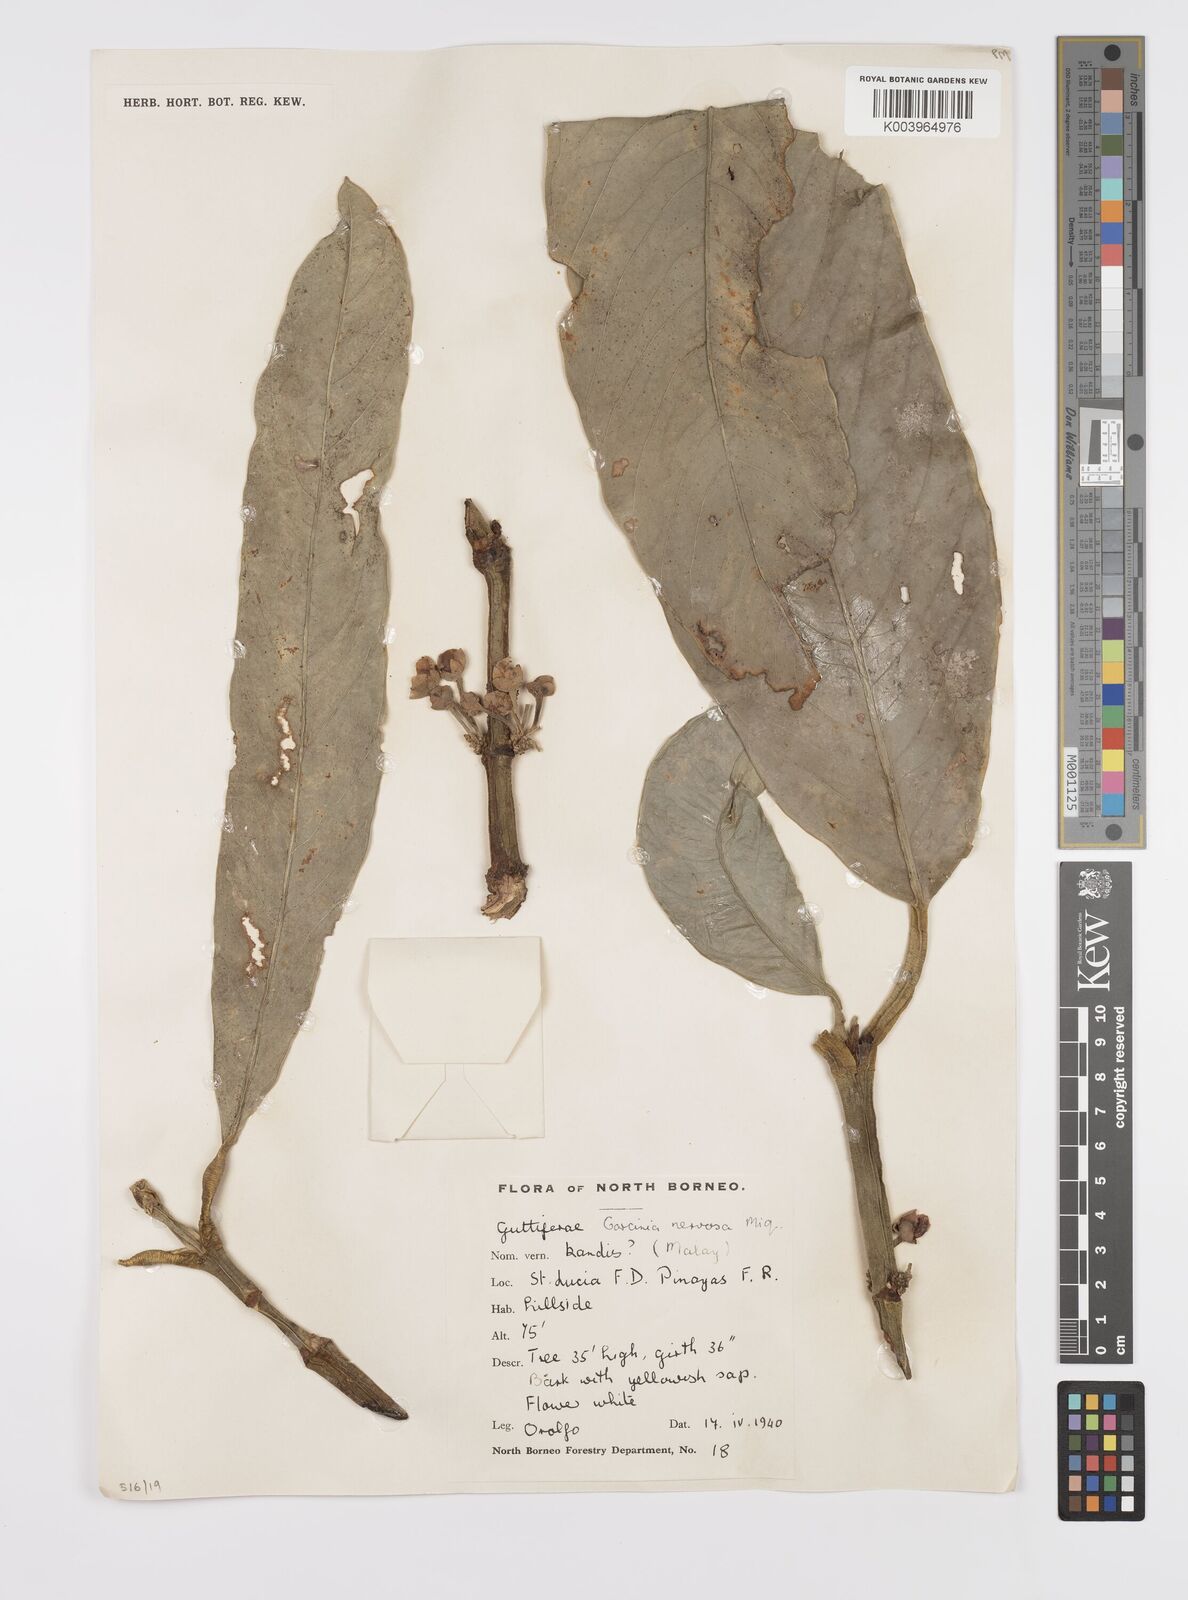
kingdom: Plantae
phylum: Tracheophyta
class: Magnoliopsida
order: Malpighiales
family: Clusiaceae
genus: Garcinia
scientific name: Garcinia nervosa
